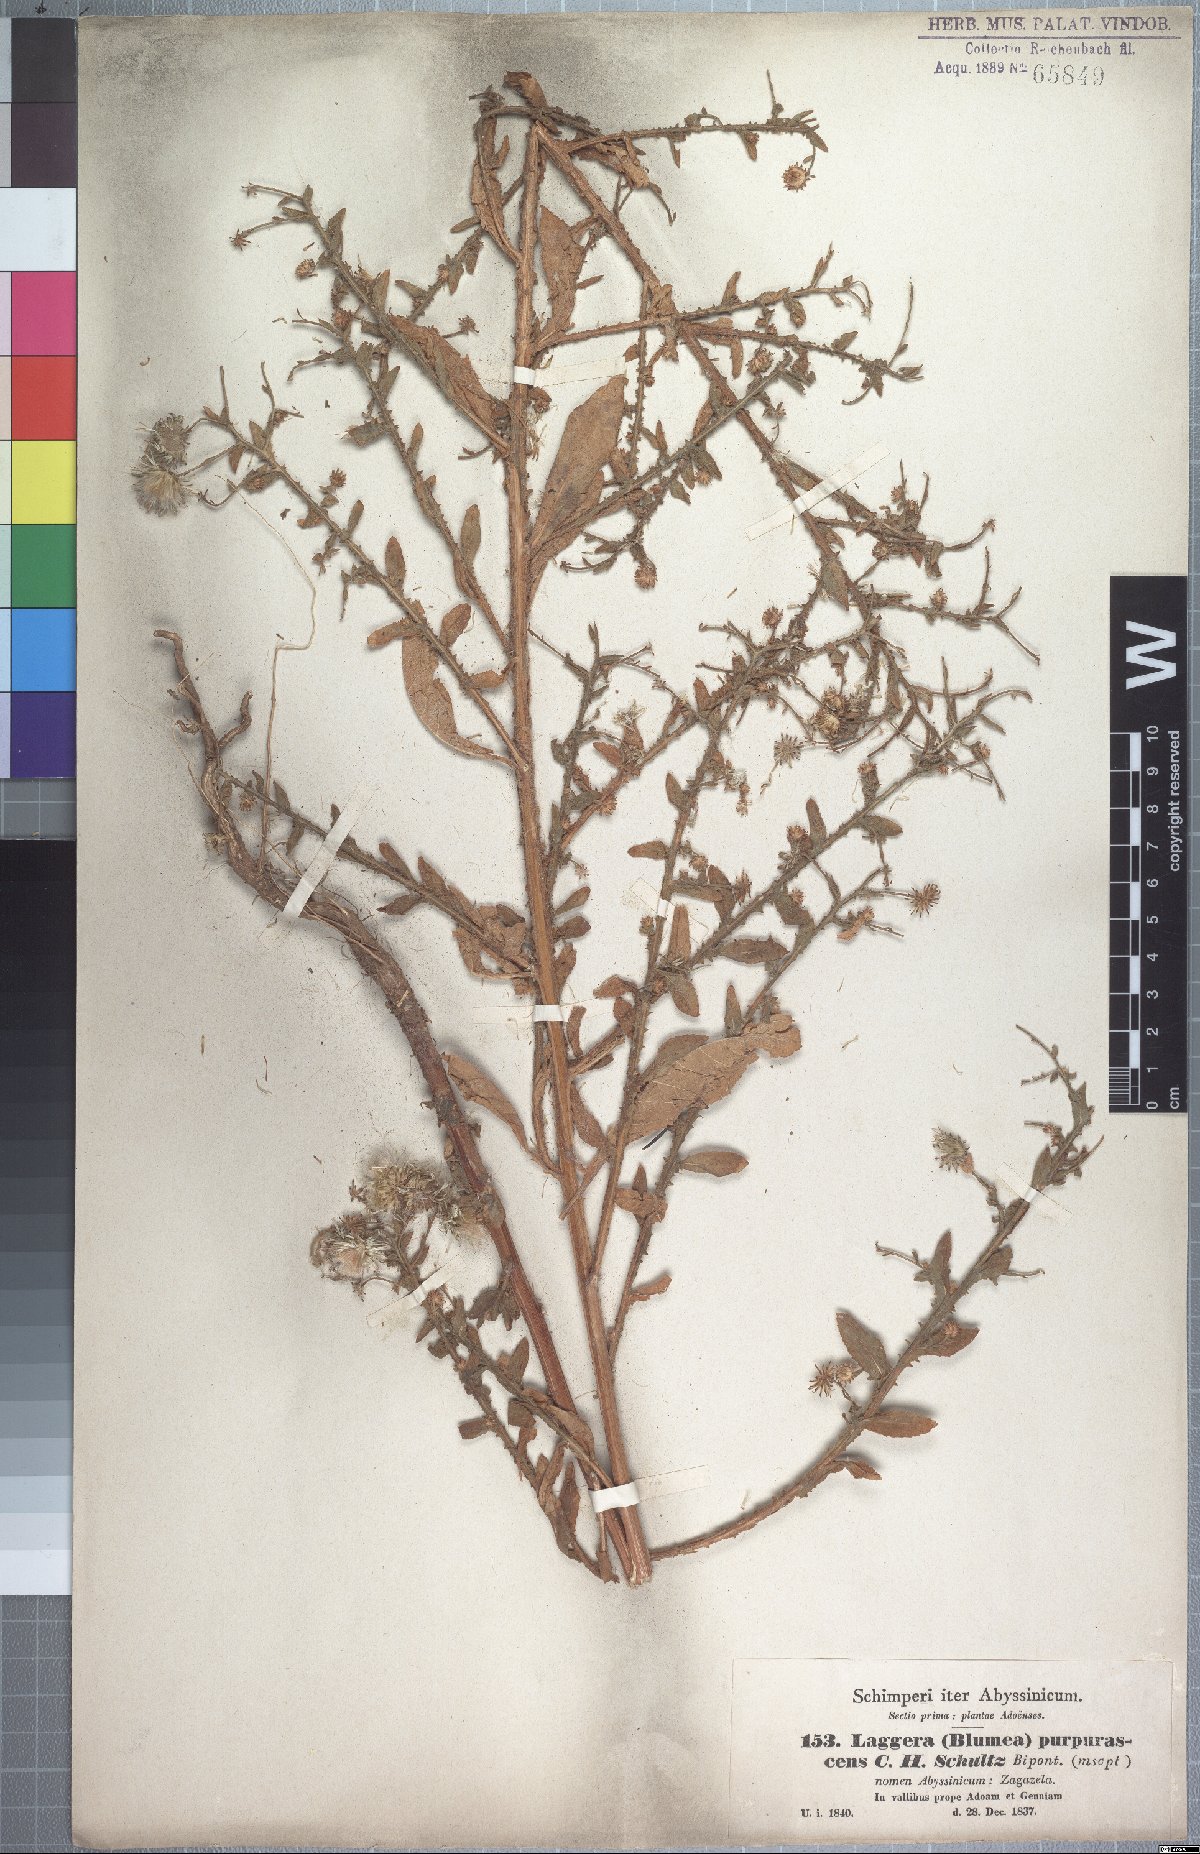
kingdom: Plantae
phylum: Tracheophyta
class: Magnoliopsida
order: Asterales
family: Asteraceae
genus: Laggera
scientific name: Laggera crispata
